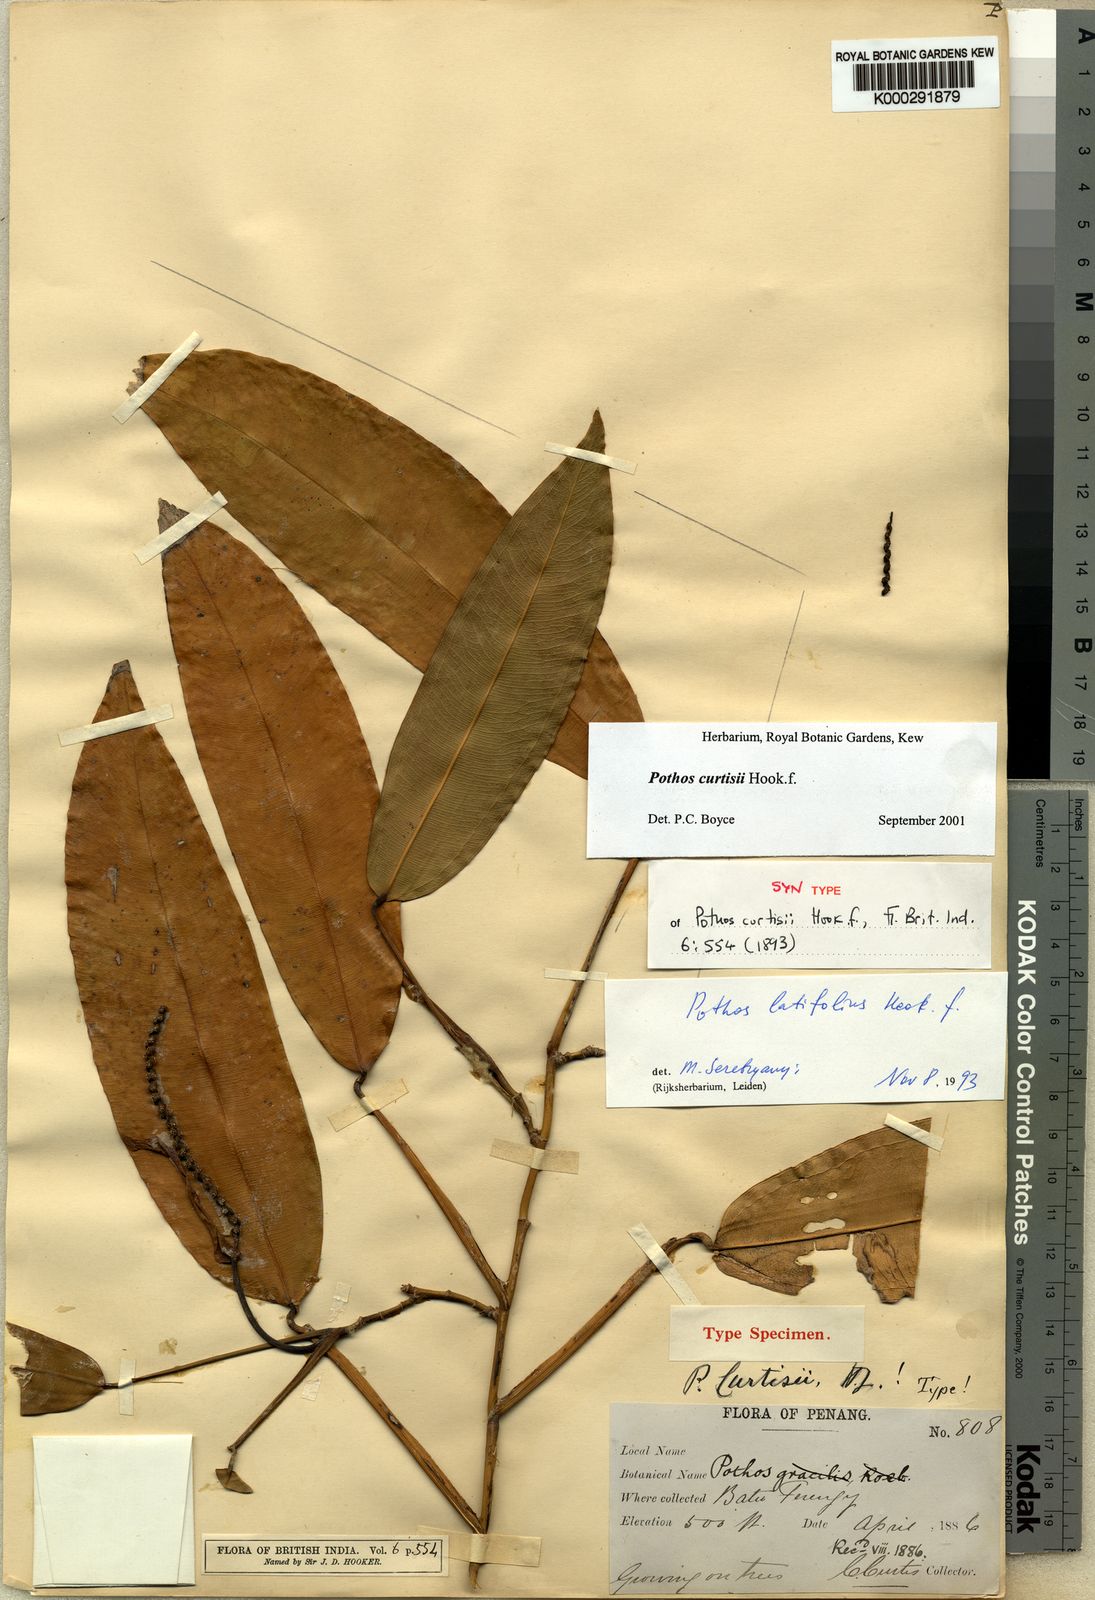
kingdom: Plantae
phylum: Tracheophyta
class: Liliopsida
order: Alismatales
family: Araceae
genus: Pothos
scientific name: Pothos curtisii
